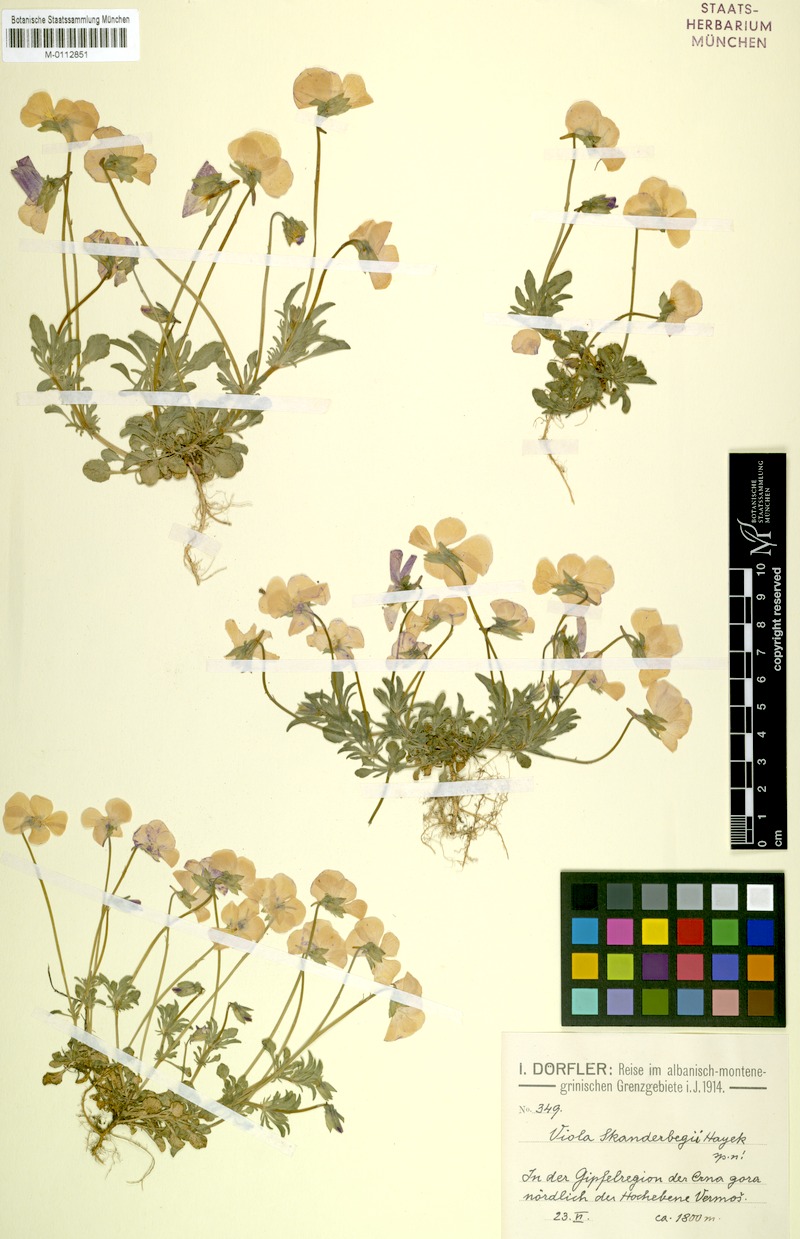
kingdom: Plantae
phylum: Tracheophyta
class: Magnoliopsida
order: Malpighiales
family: Violaceae
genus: Viola
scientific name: Viola skanderbegii
